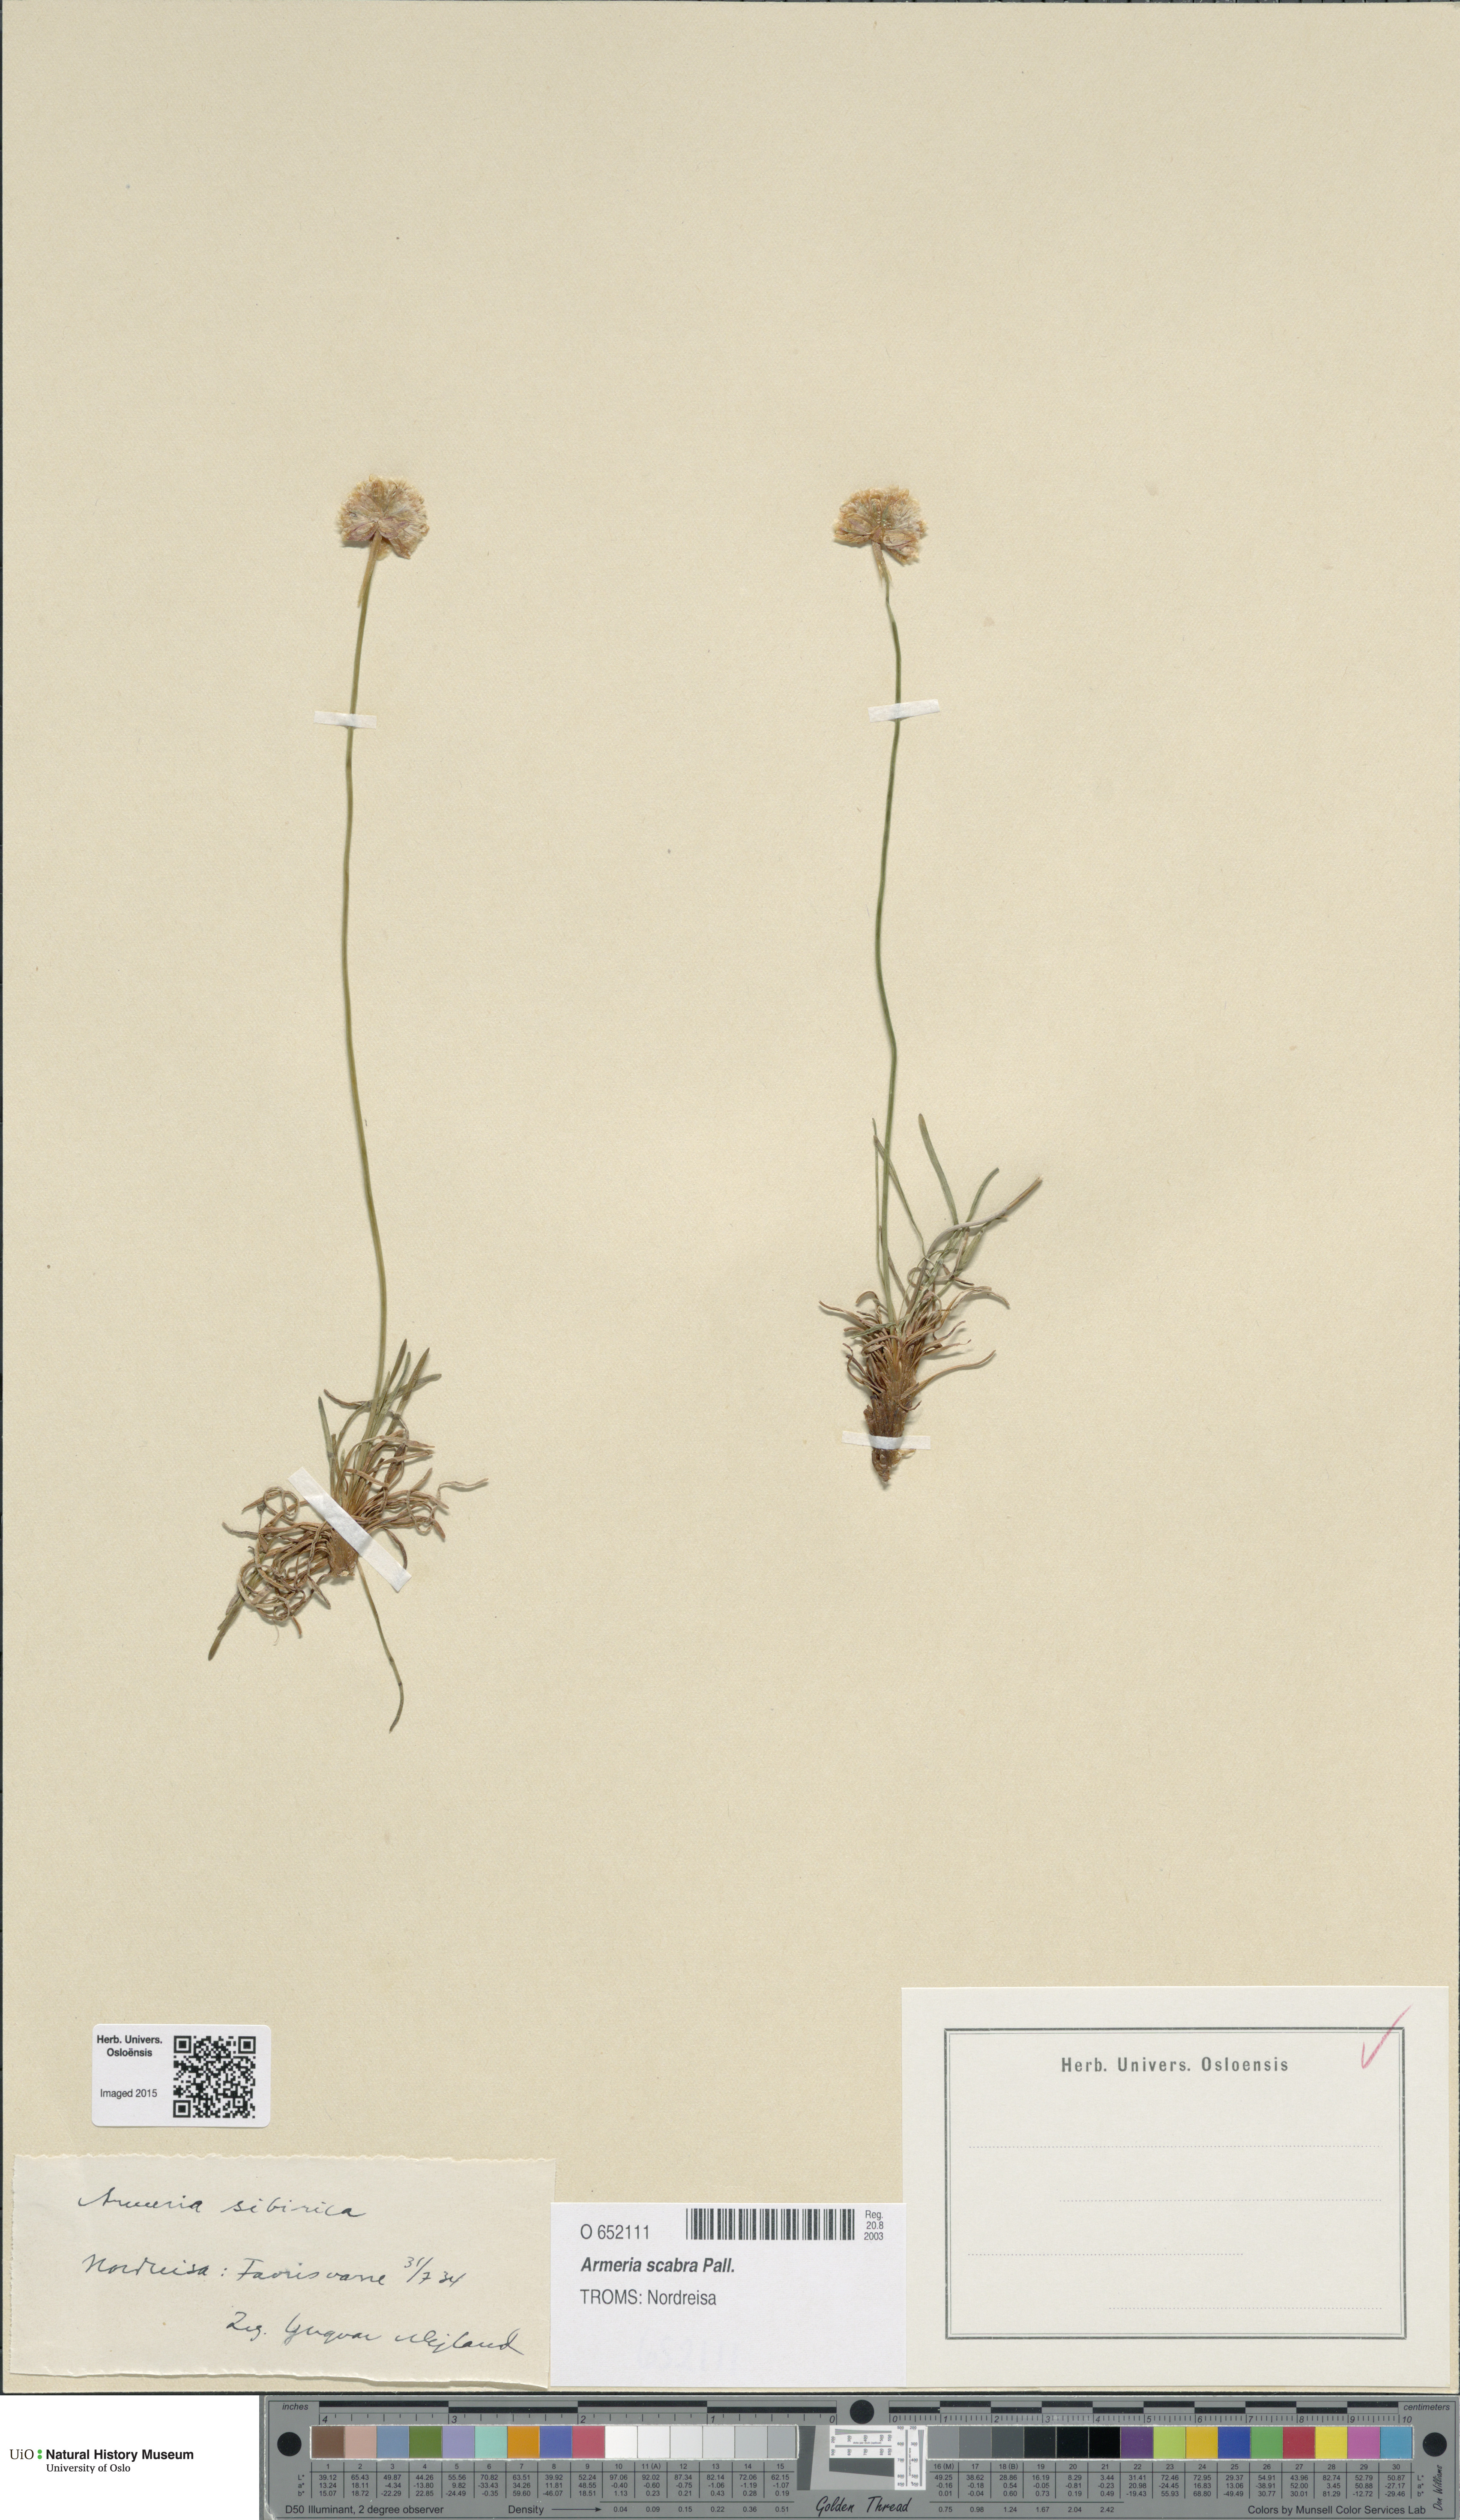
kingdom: Plantae
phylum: Tracheophyta
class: Magnoliopsida
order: Caryophyllales
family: Plumbaginaceae
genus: Armeria
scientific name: Armeria maritima
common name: Thrift
